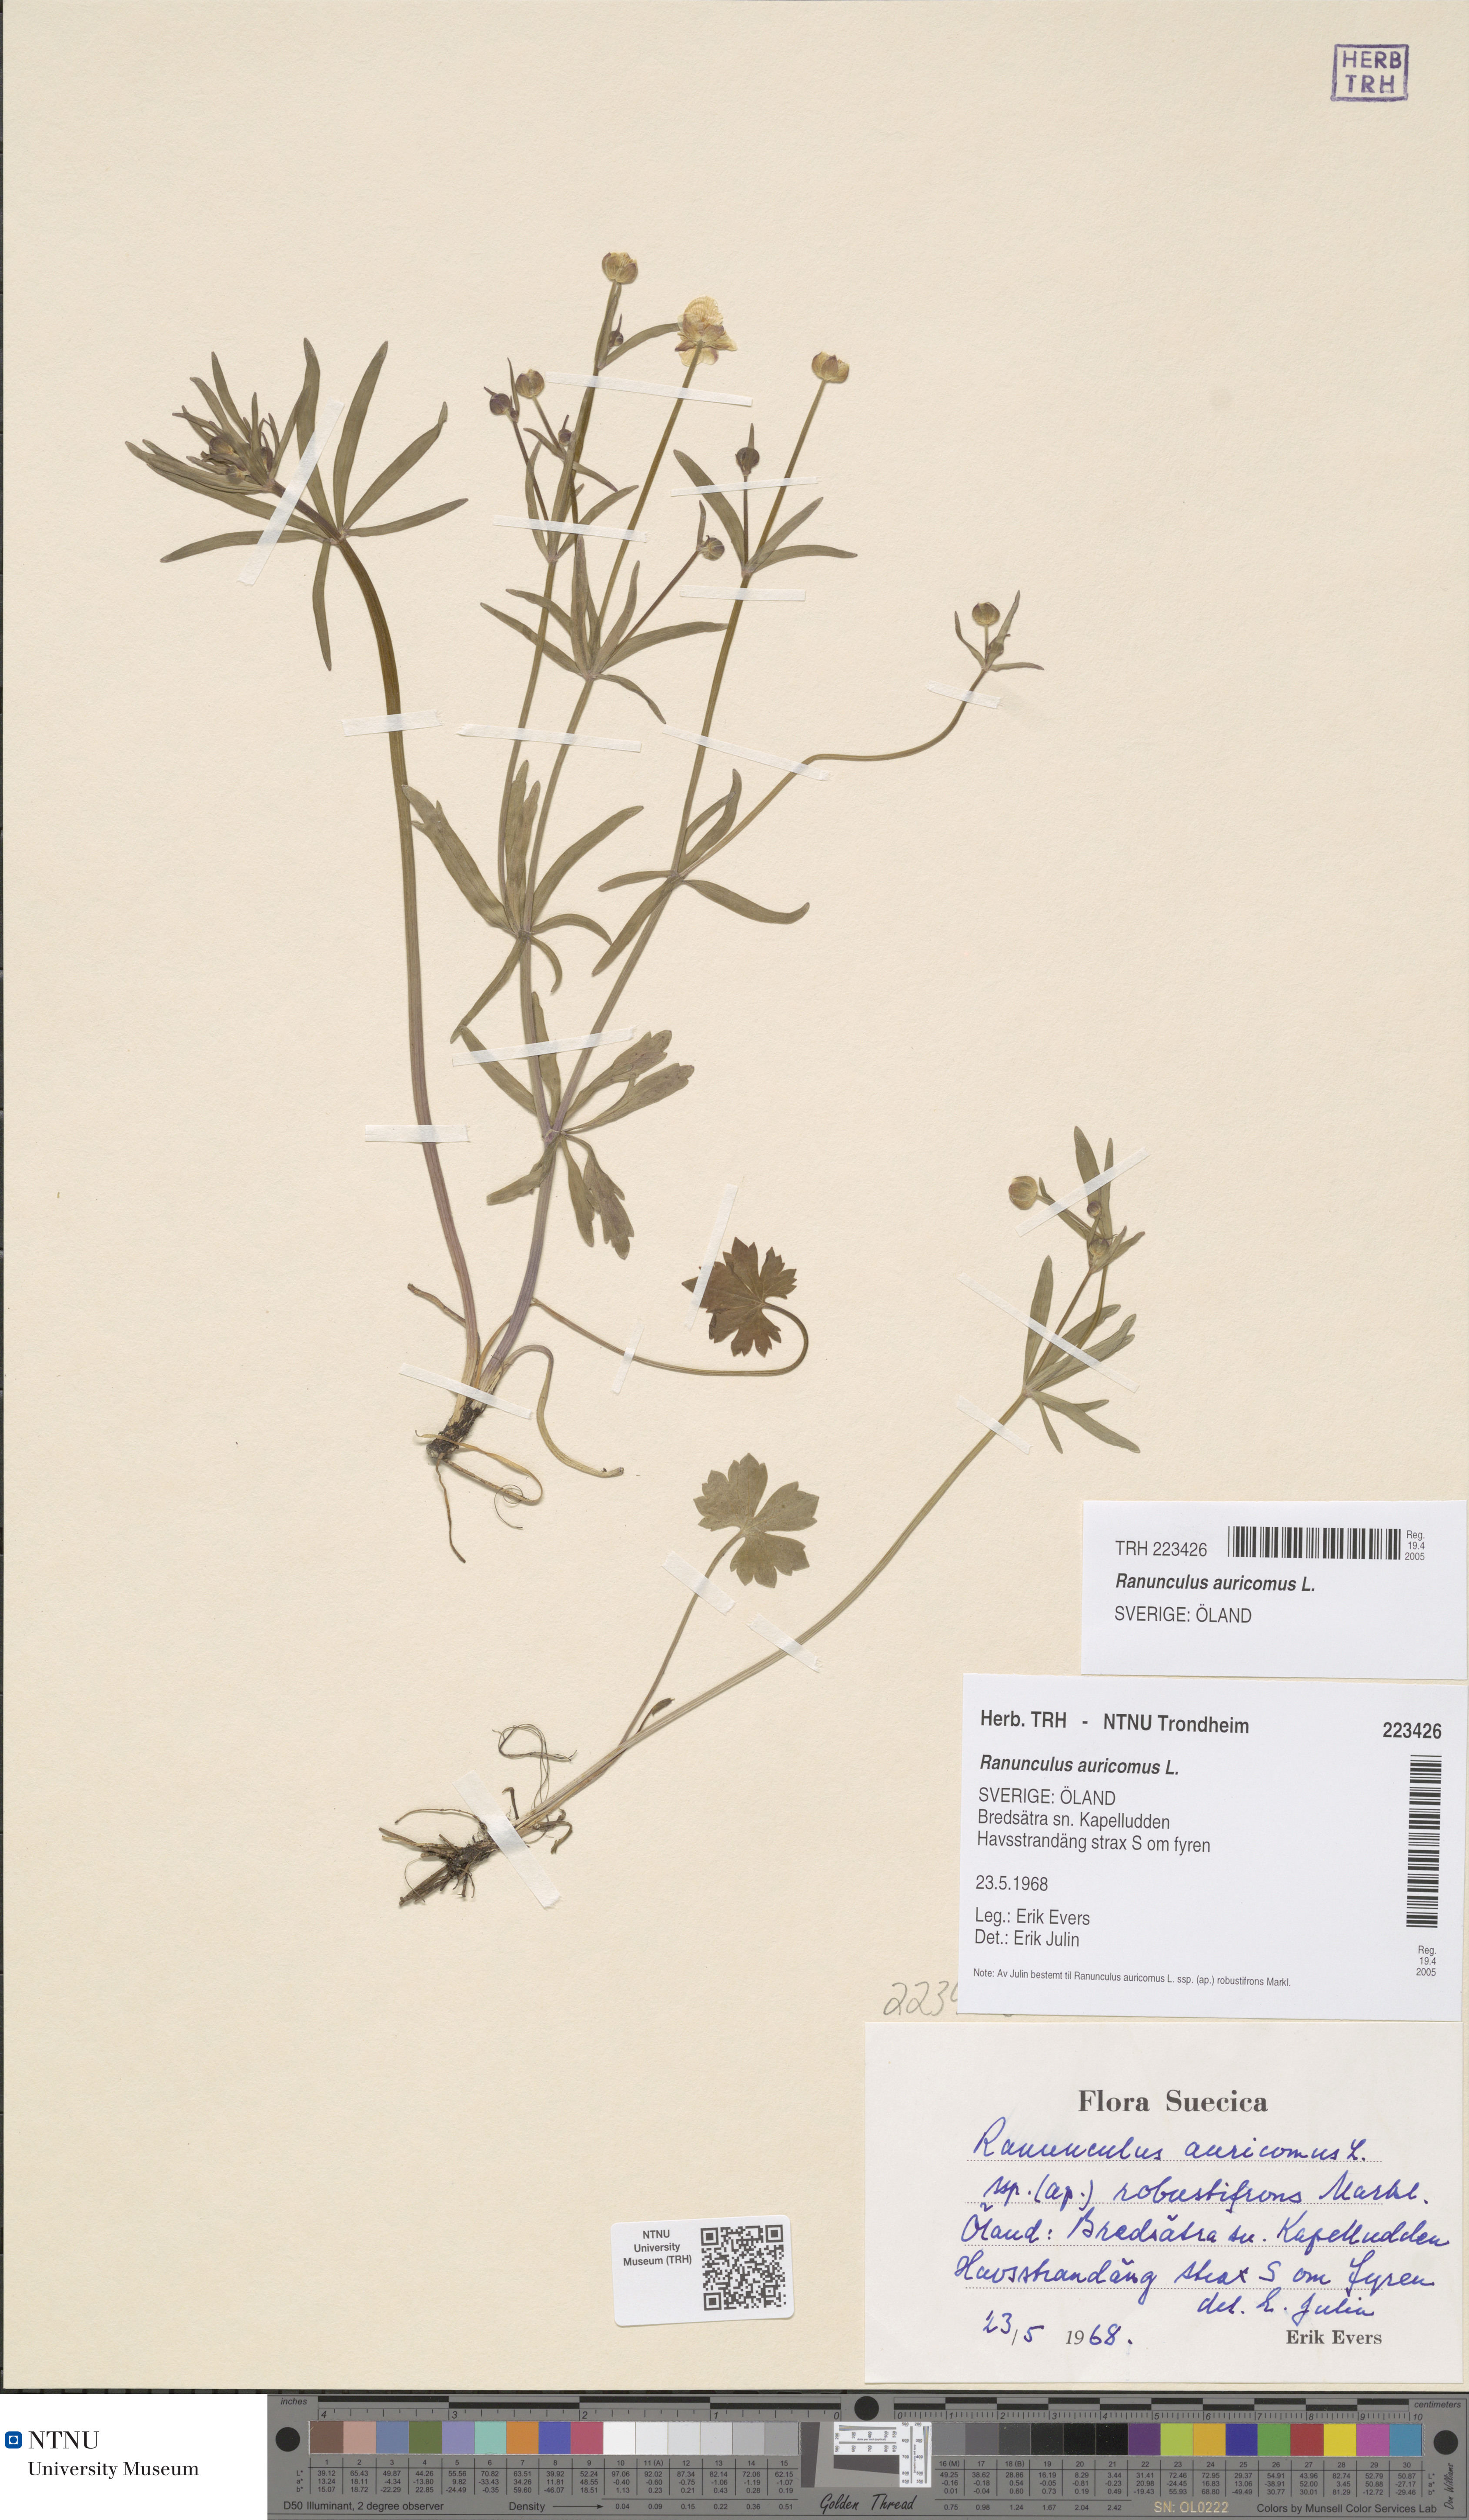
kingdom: Plantae
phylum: Tracheophyta
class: Magnoliopsida
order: Ranunculales
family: Ranunculaceae
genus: Ranunculus
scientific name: Ranunculus auricomus
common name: Goldilocks buttercup
